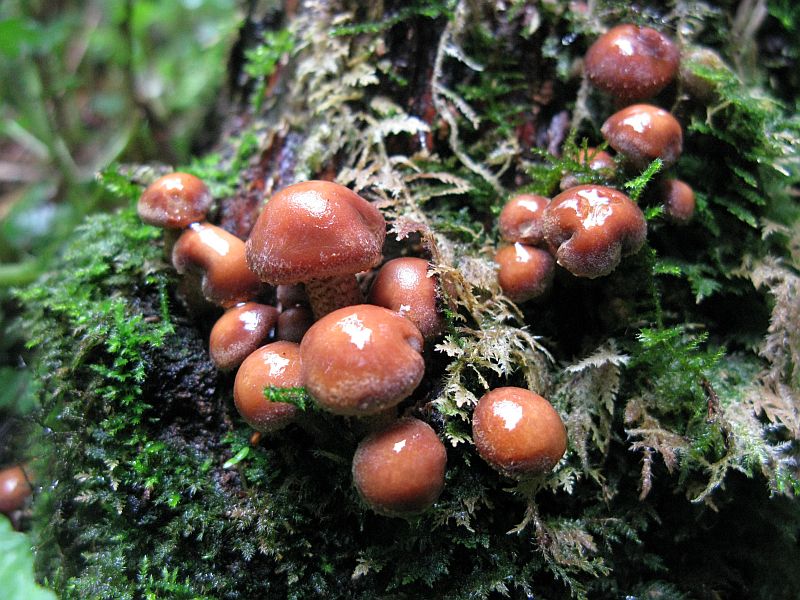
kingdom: Fungi
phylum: Basidiomycota
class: Agaricomycetes
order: Agaricales
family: Strophariaceae
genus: Kuehneromyces
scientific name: Kuehneromyces mutabilis
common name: foranderlig skælhat
